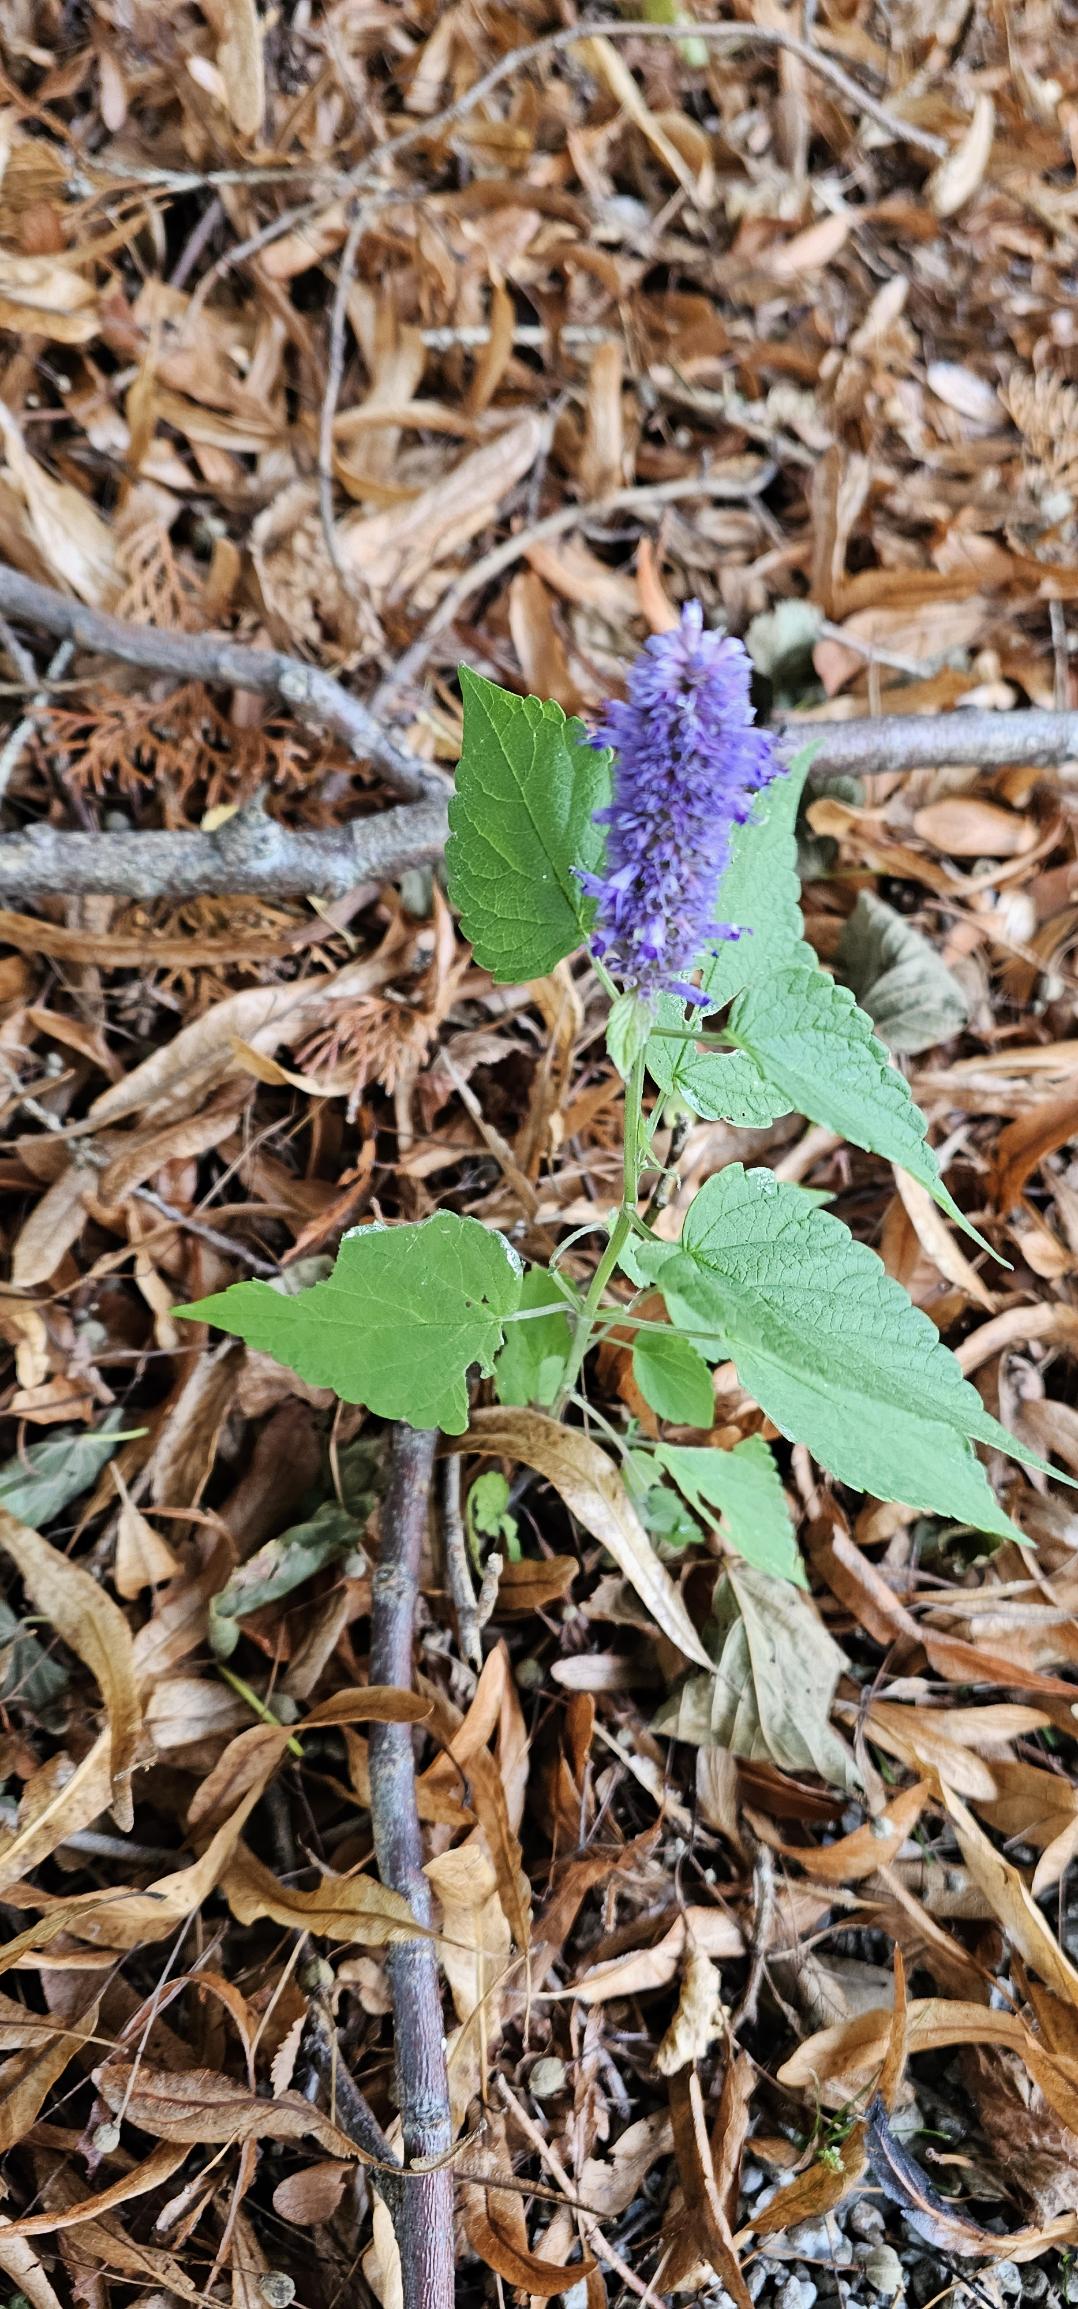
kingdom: Plantae
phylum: Tracheophyta
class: Magnoliopsida
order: Lamiales
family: Lamiaceae
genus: Agastache
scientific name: Agastache rugosa
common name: Koreansk anisisop
